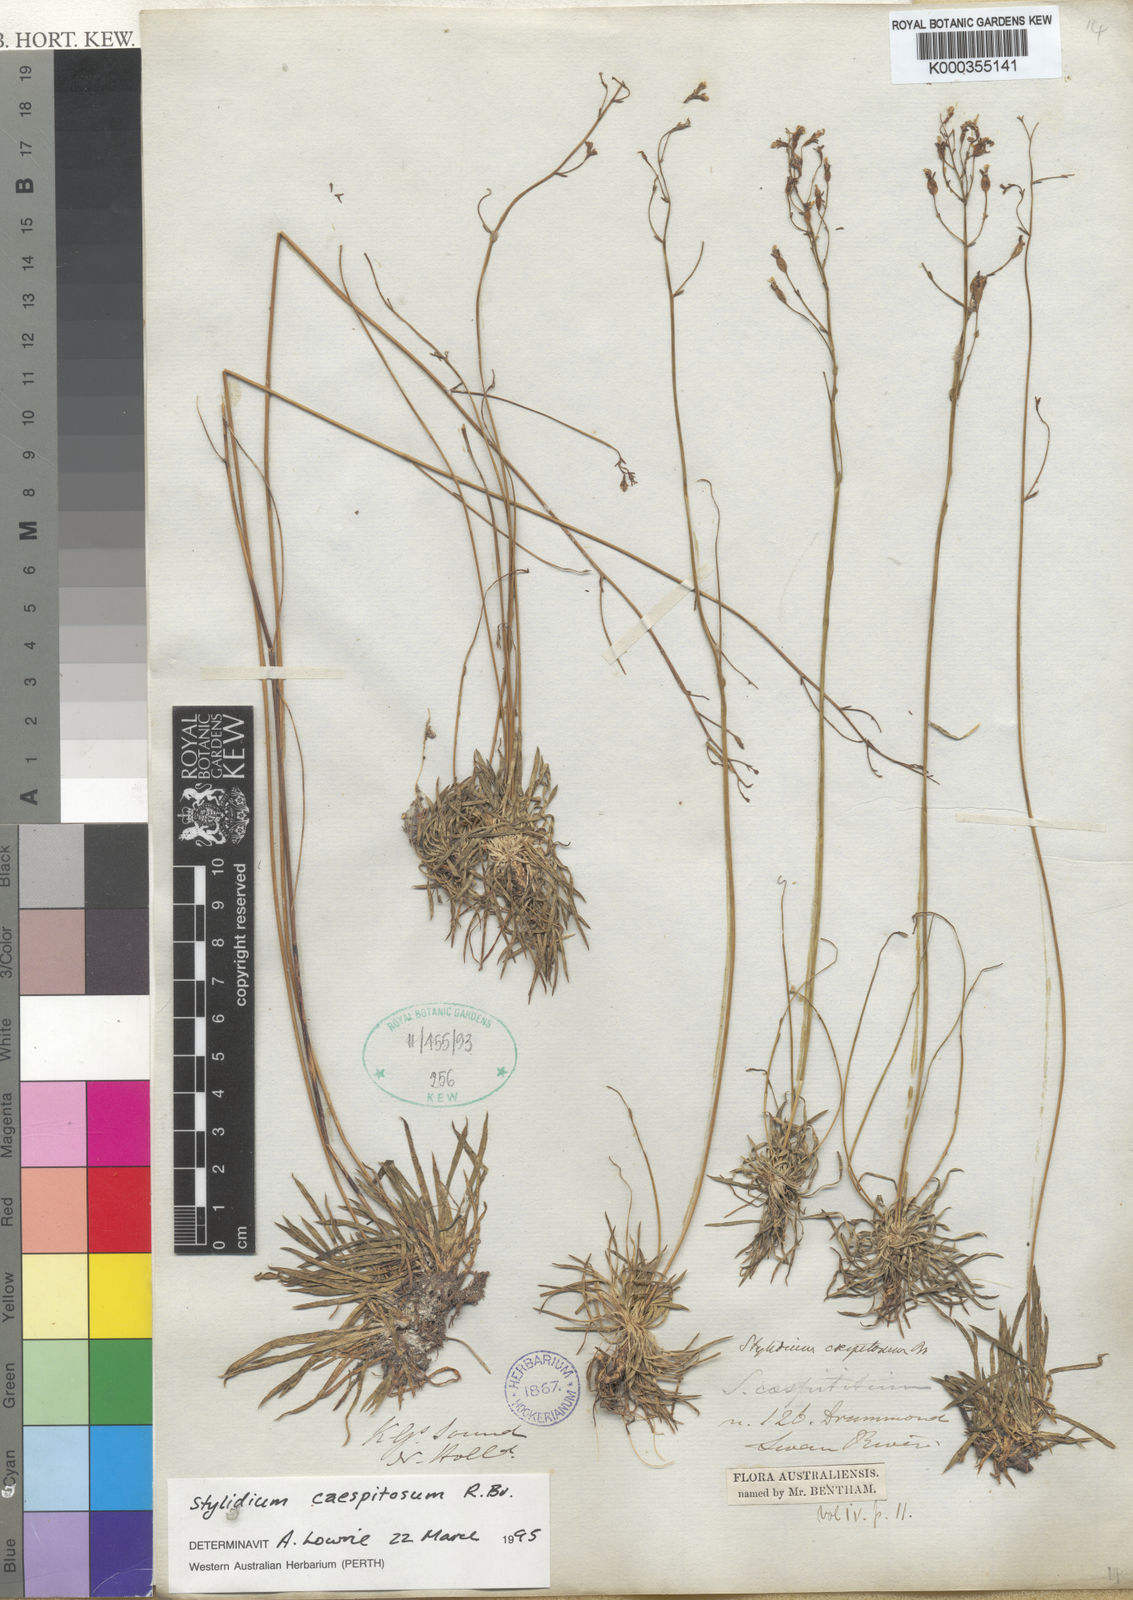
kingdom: Plantae
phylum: Tracheophyta
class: Magnoliopsida
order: Asterales
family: Stylidiaceae
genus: Stylidium
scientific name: Stylidium caespitosum
